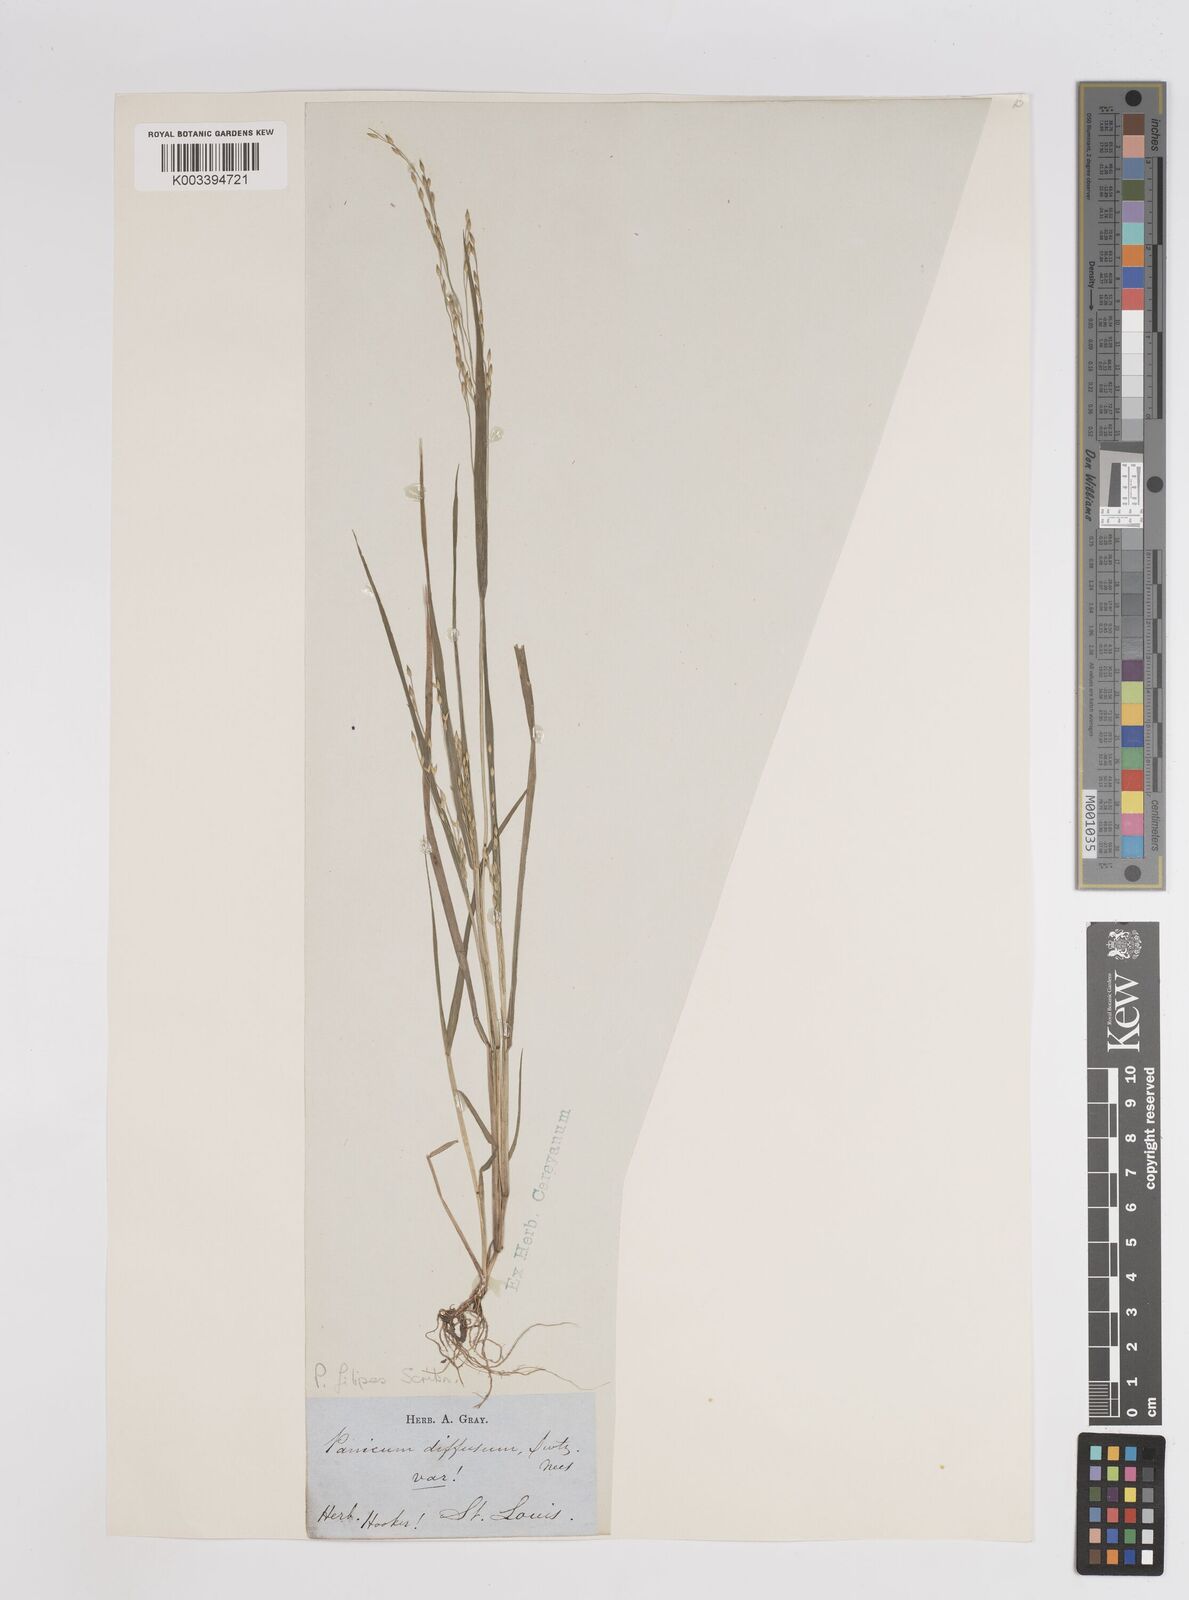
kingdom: Plantae
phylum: Tracheophyta
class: Liliopsida
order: Poales
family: Poaceae
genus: Panicum
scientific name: Panicum hallii
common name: Hall's witchgrass
